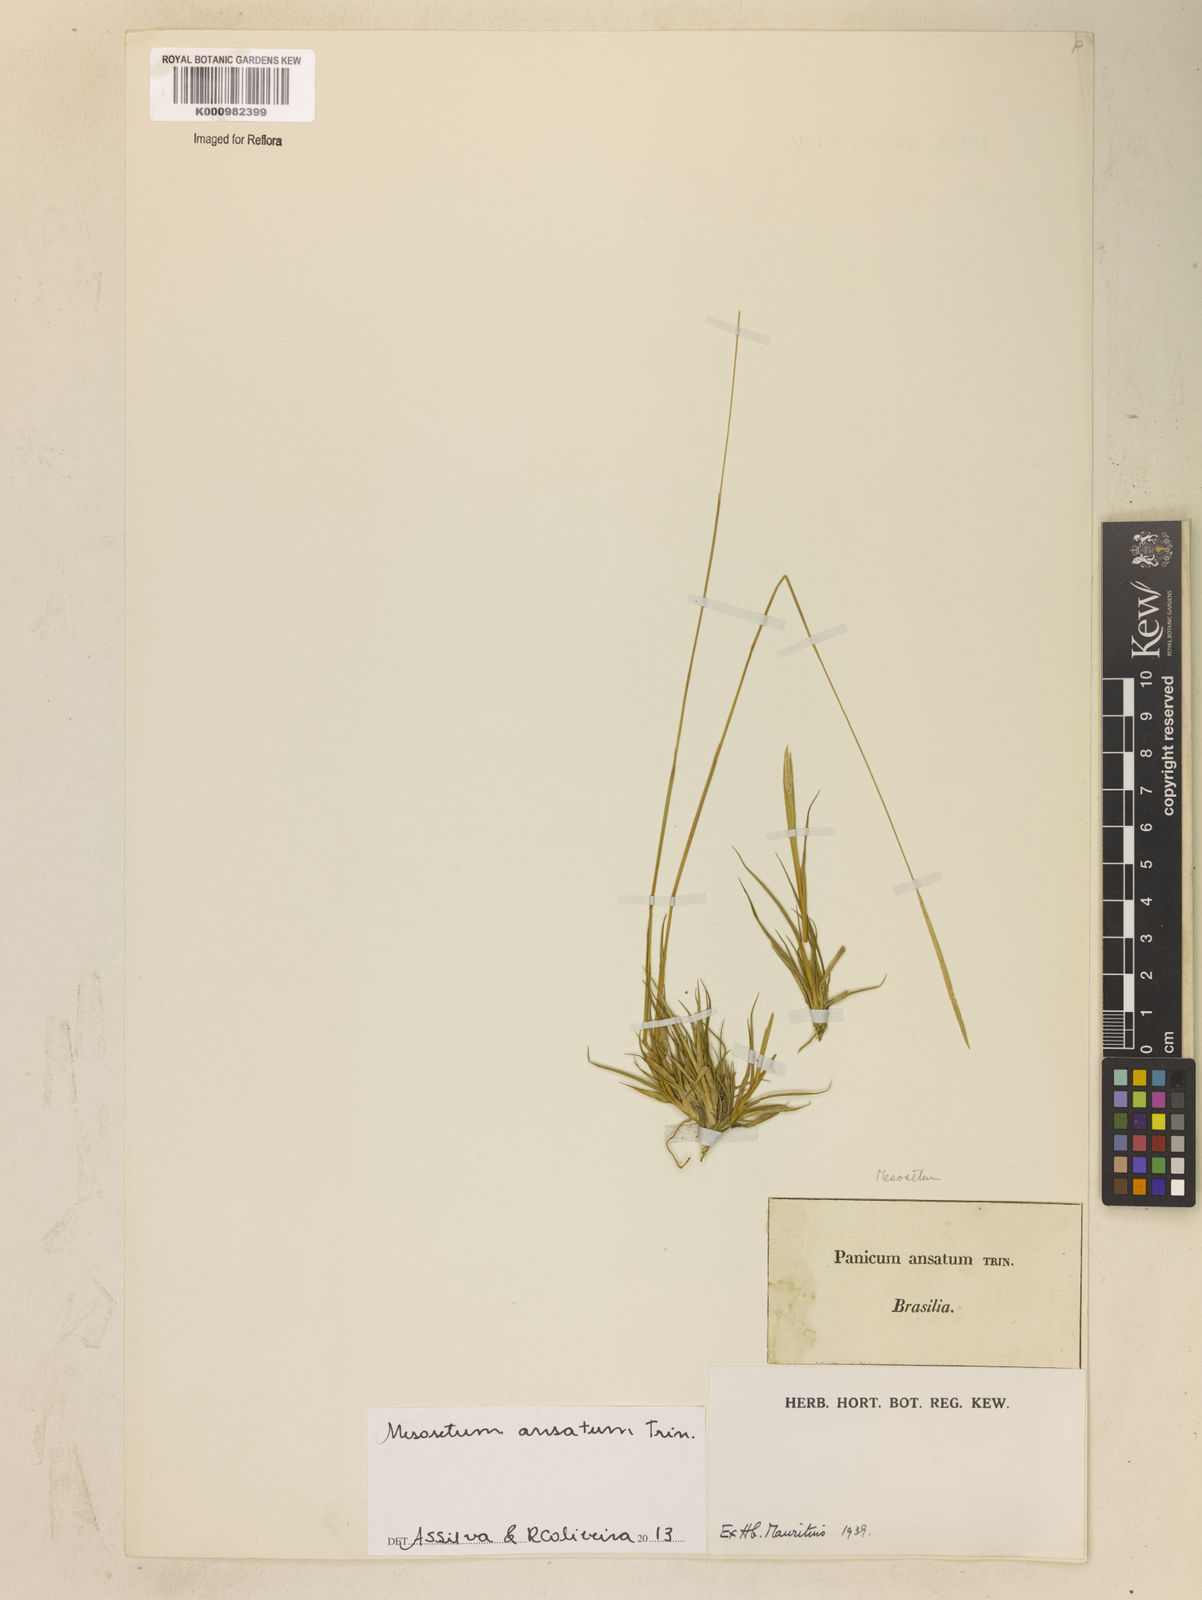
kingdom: Plantae
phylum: Tracheophyta
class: Liliopsida
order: Poales
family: Poaceae
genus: Mesosetum
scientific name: Mesosetum ansatum
